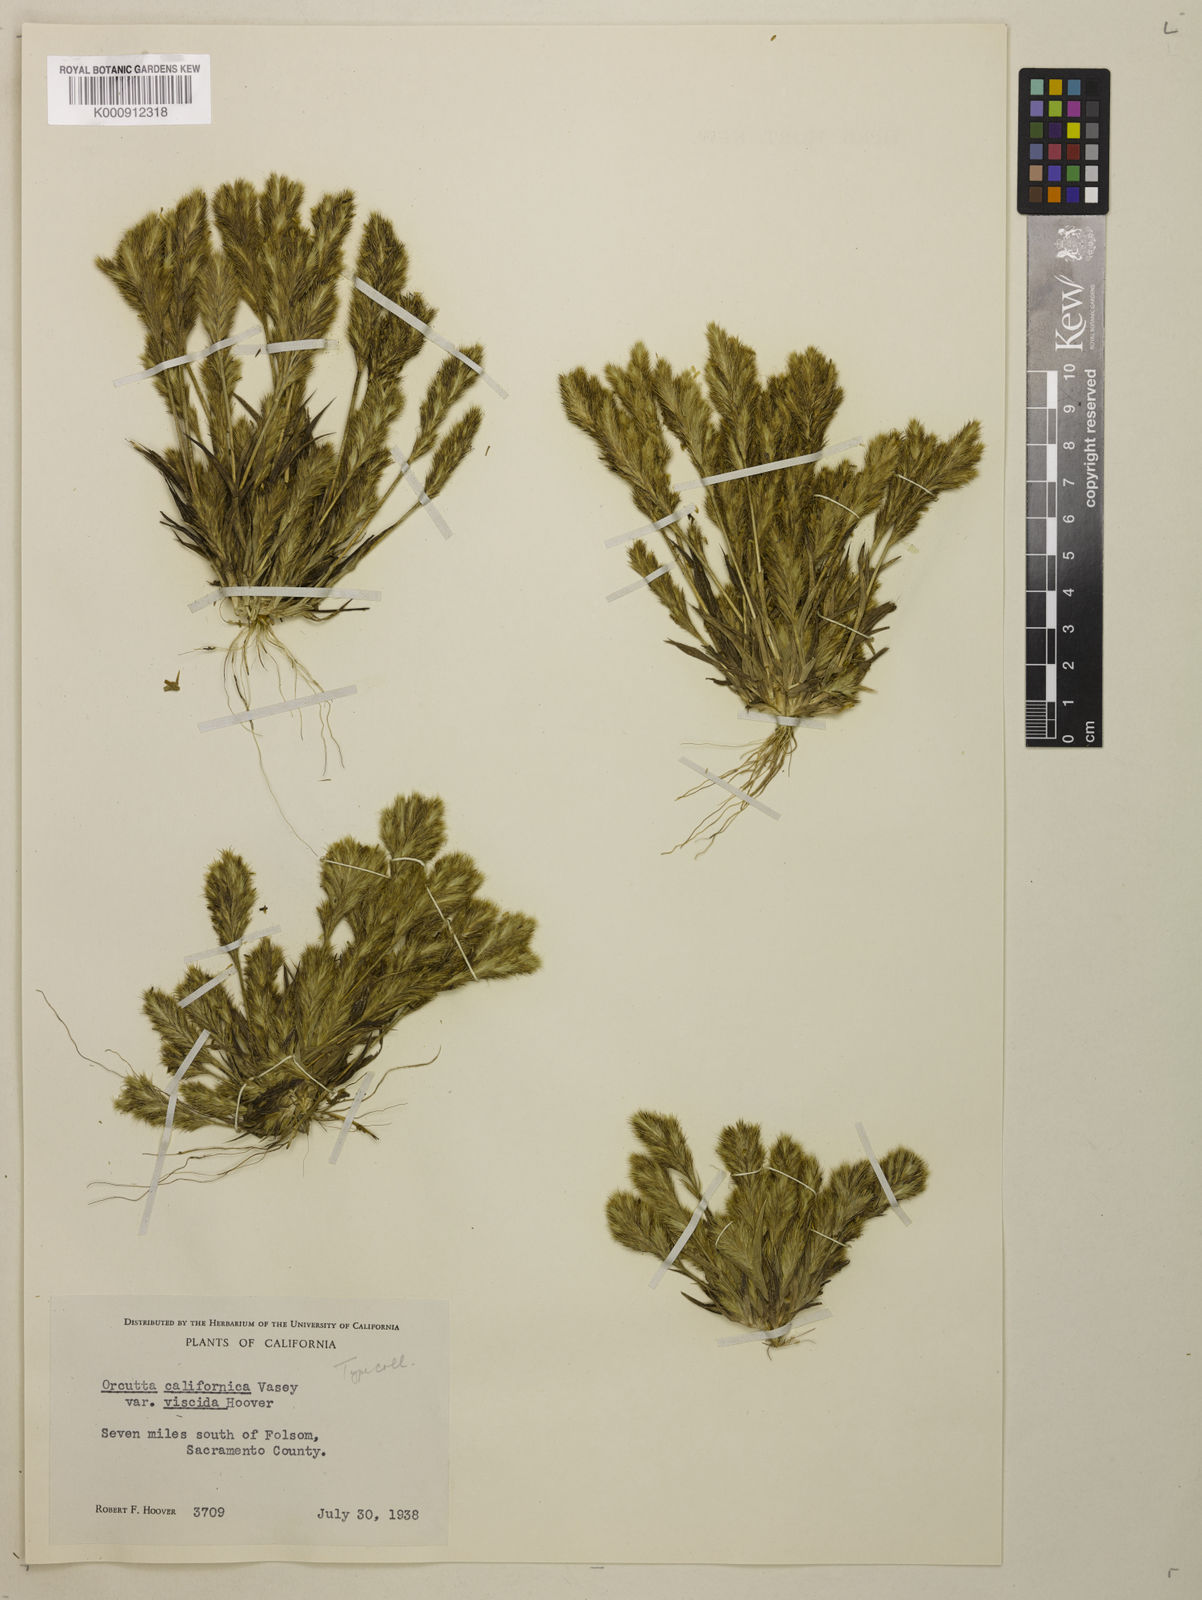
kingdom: Plantae
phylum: Tracheophyta
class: Liliopsida
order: Poales
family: Poaceae
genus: Orcuttia
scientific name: Orcuttia viscida
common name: Sacramento orcutt grass
